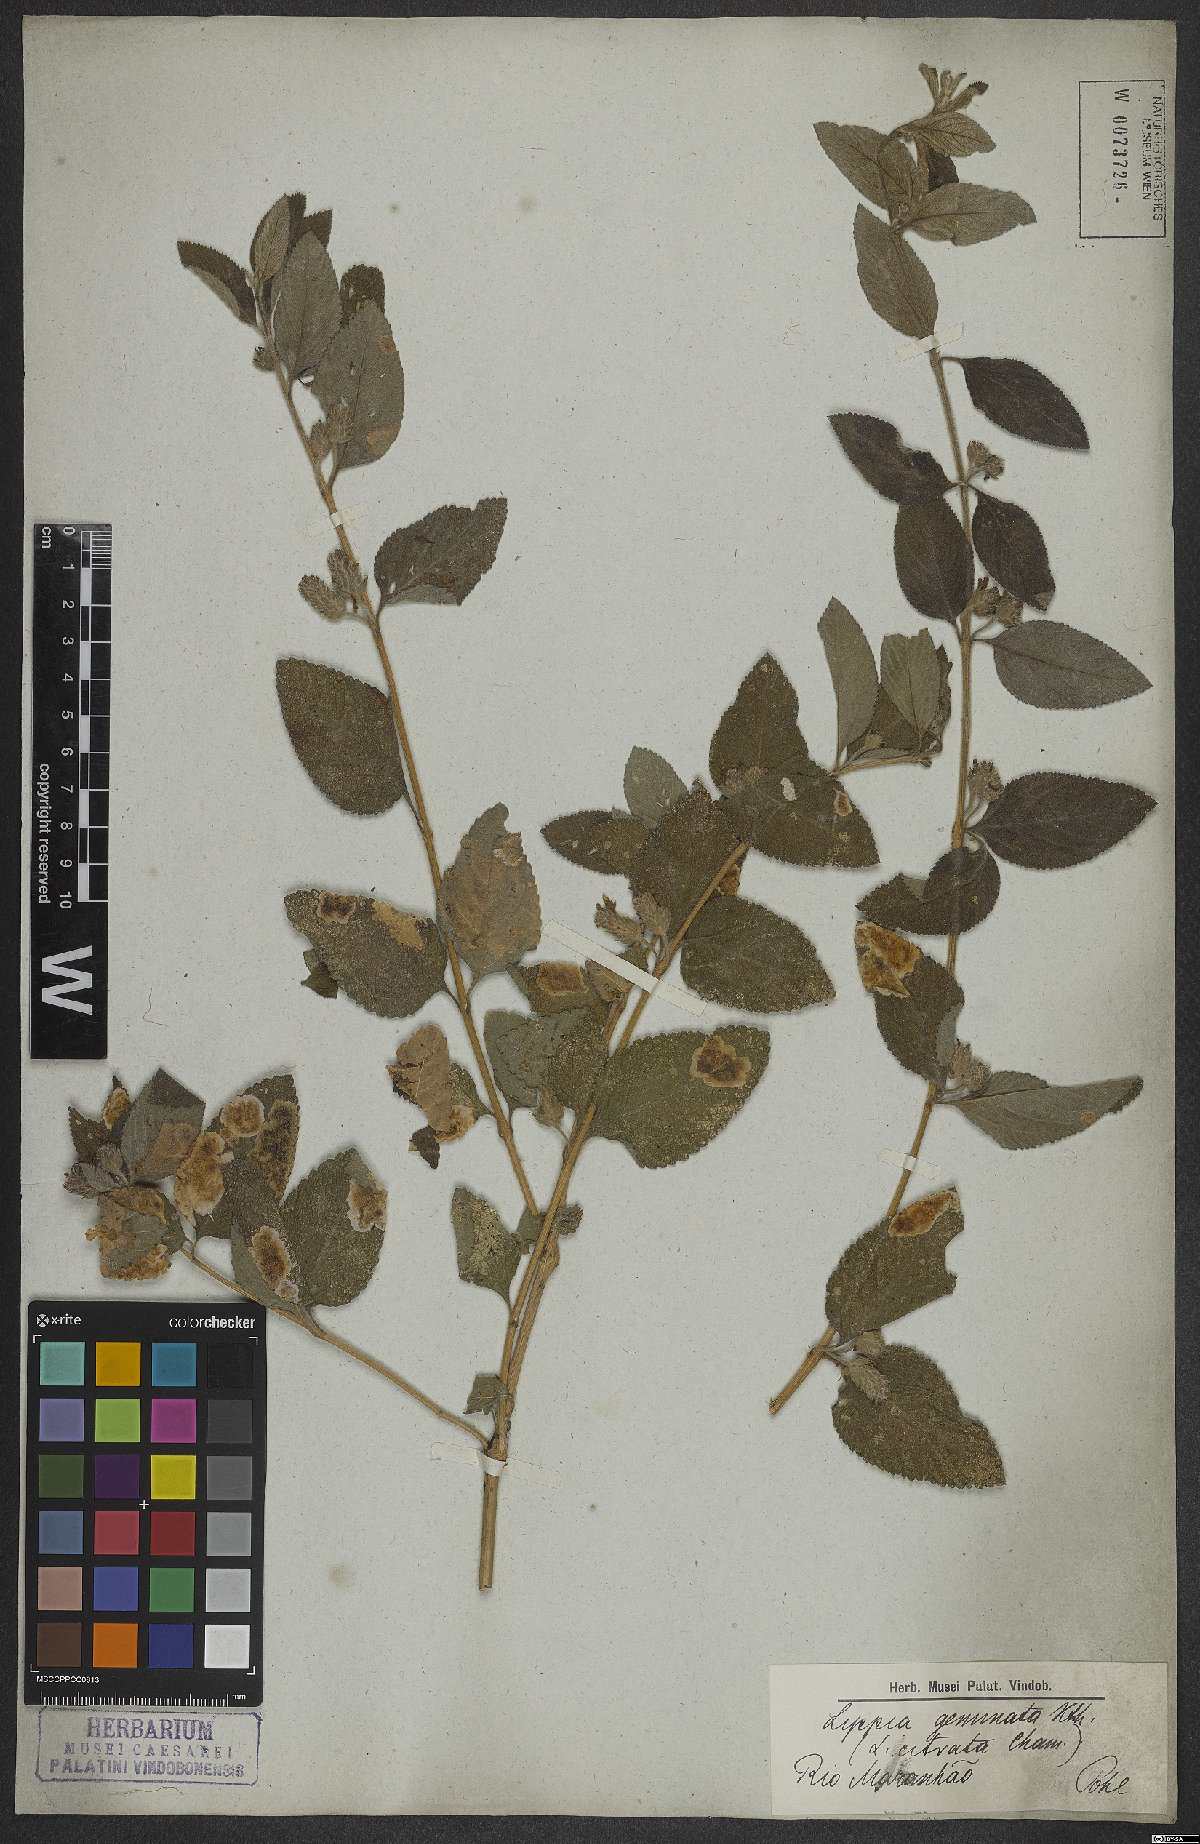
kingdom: Plantae
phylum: Tracheophyta
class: Magnoliopsida
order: Lamiales
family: Verbenaceae
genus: Lippia
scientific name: Lippia alba
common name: Bushy matgrass
